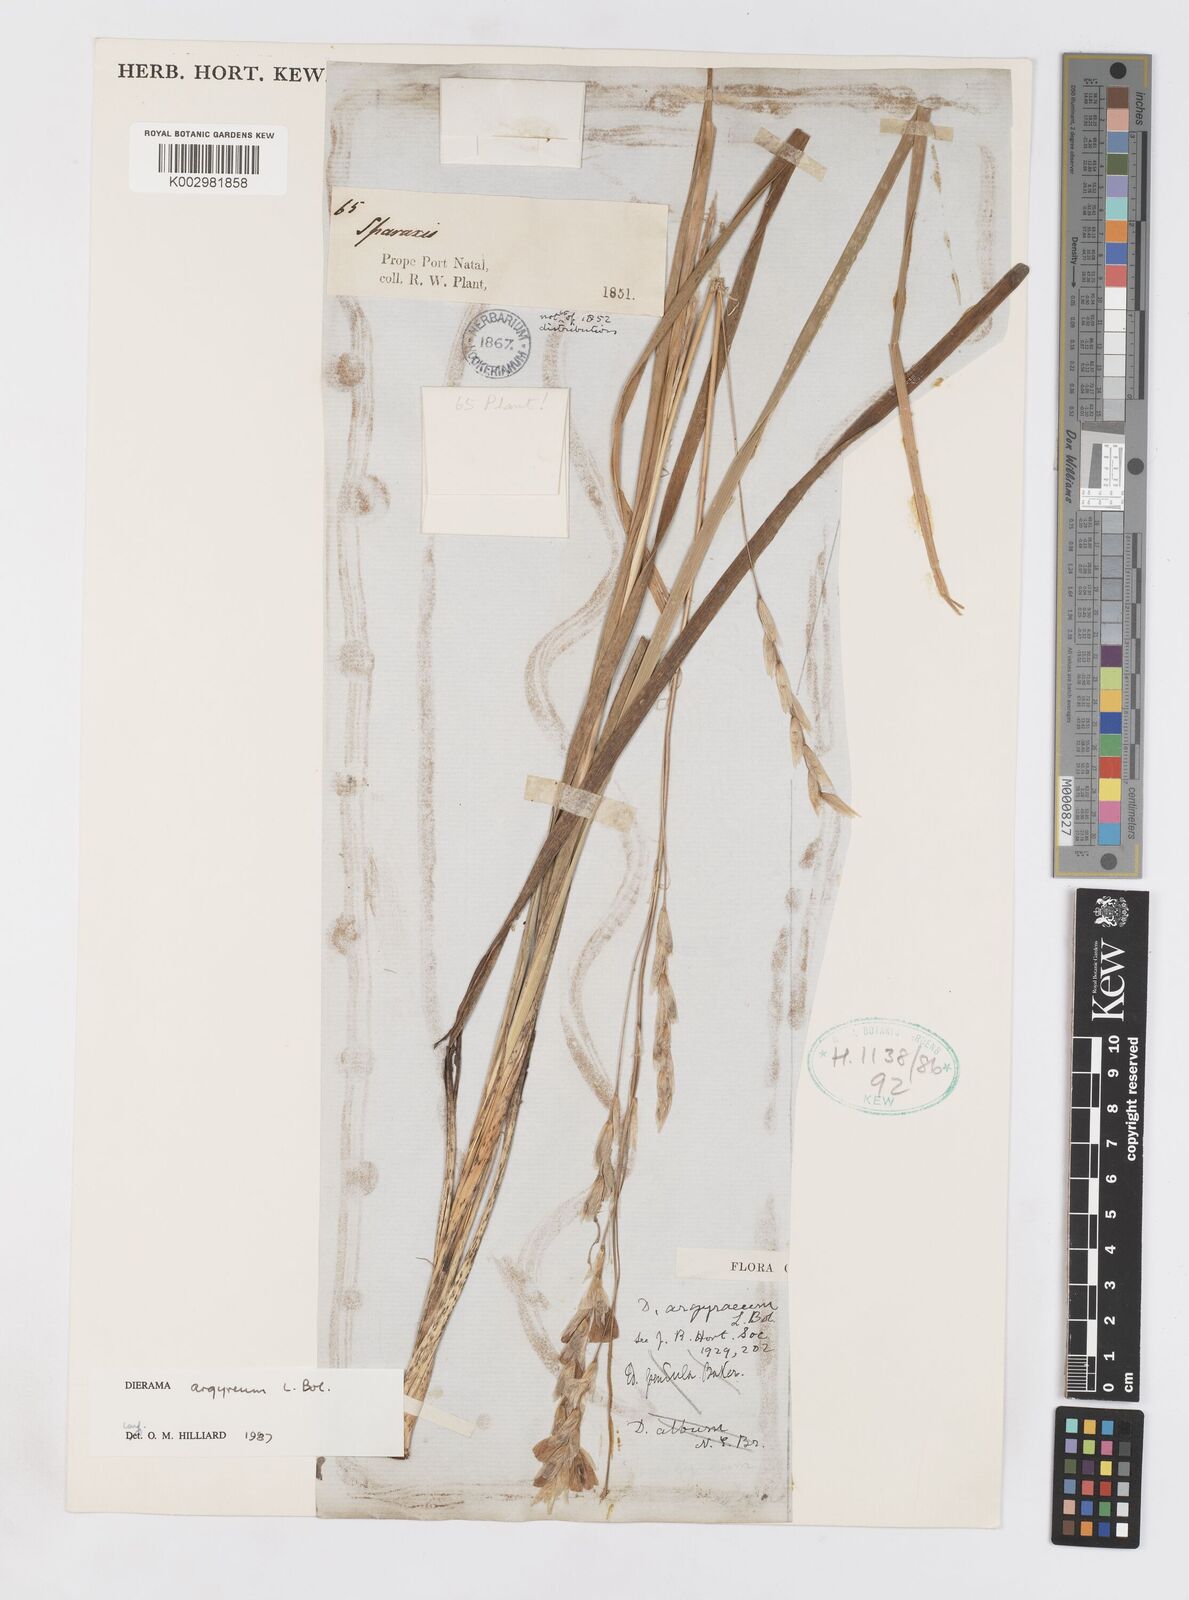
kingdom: Plantae
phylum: Tracheophyta
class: Liliopsida
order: Asparagales
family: Iridaceae
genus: Dierama
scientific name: Dierama argyreum
